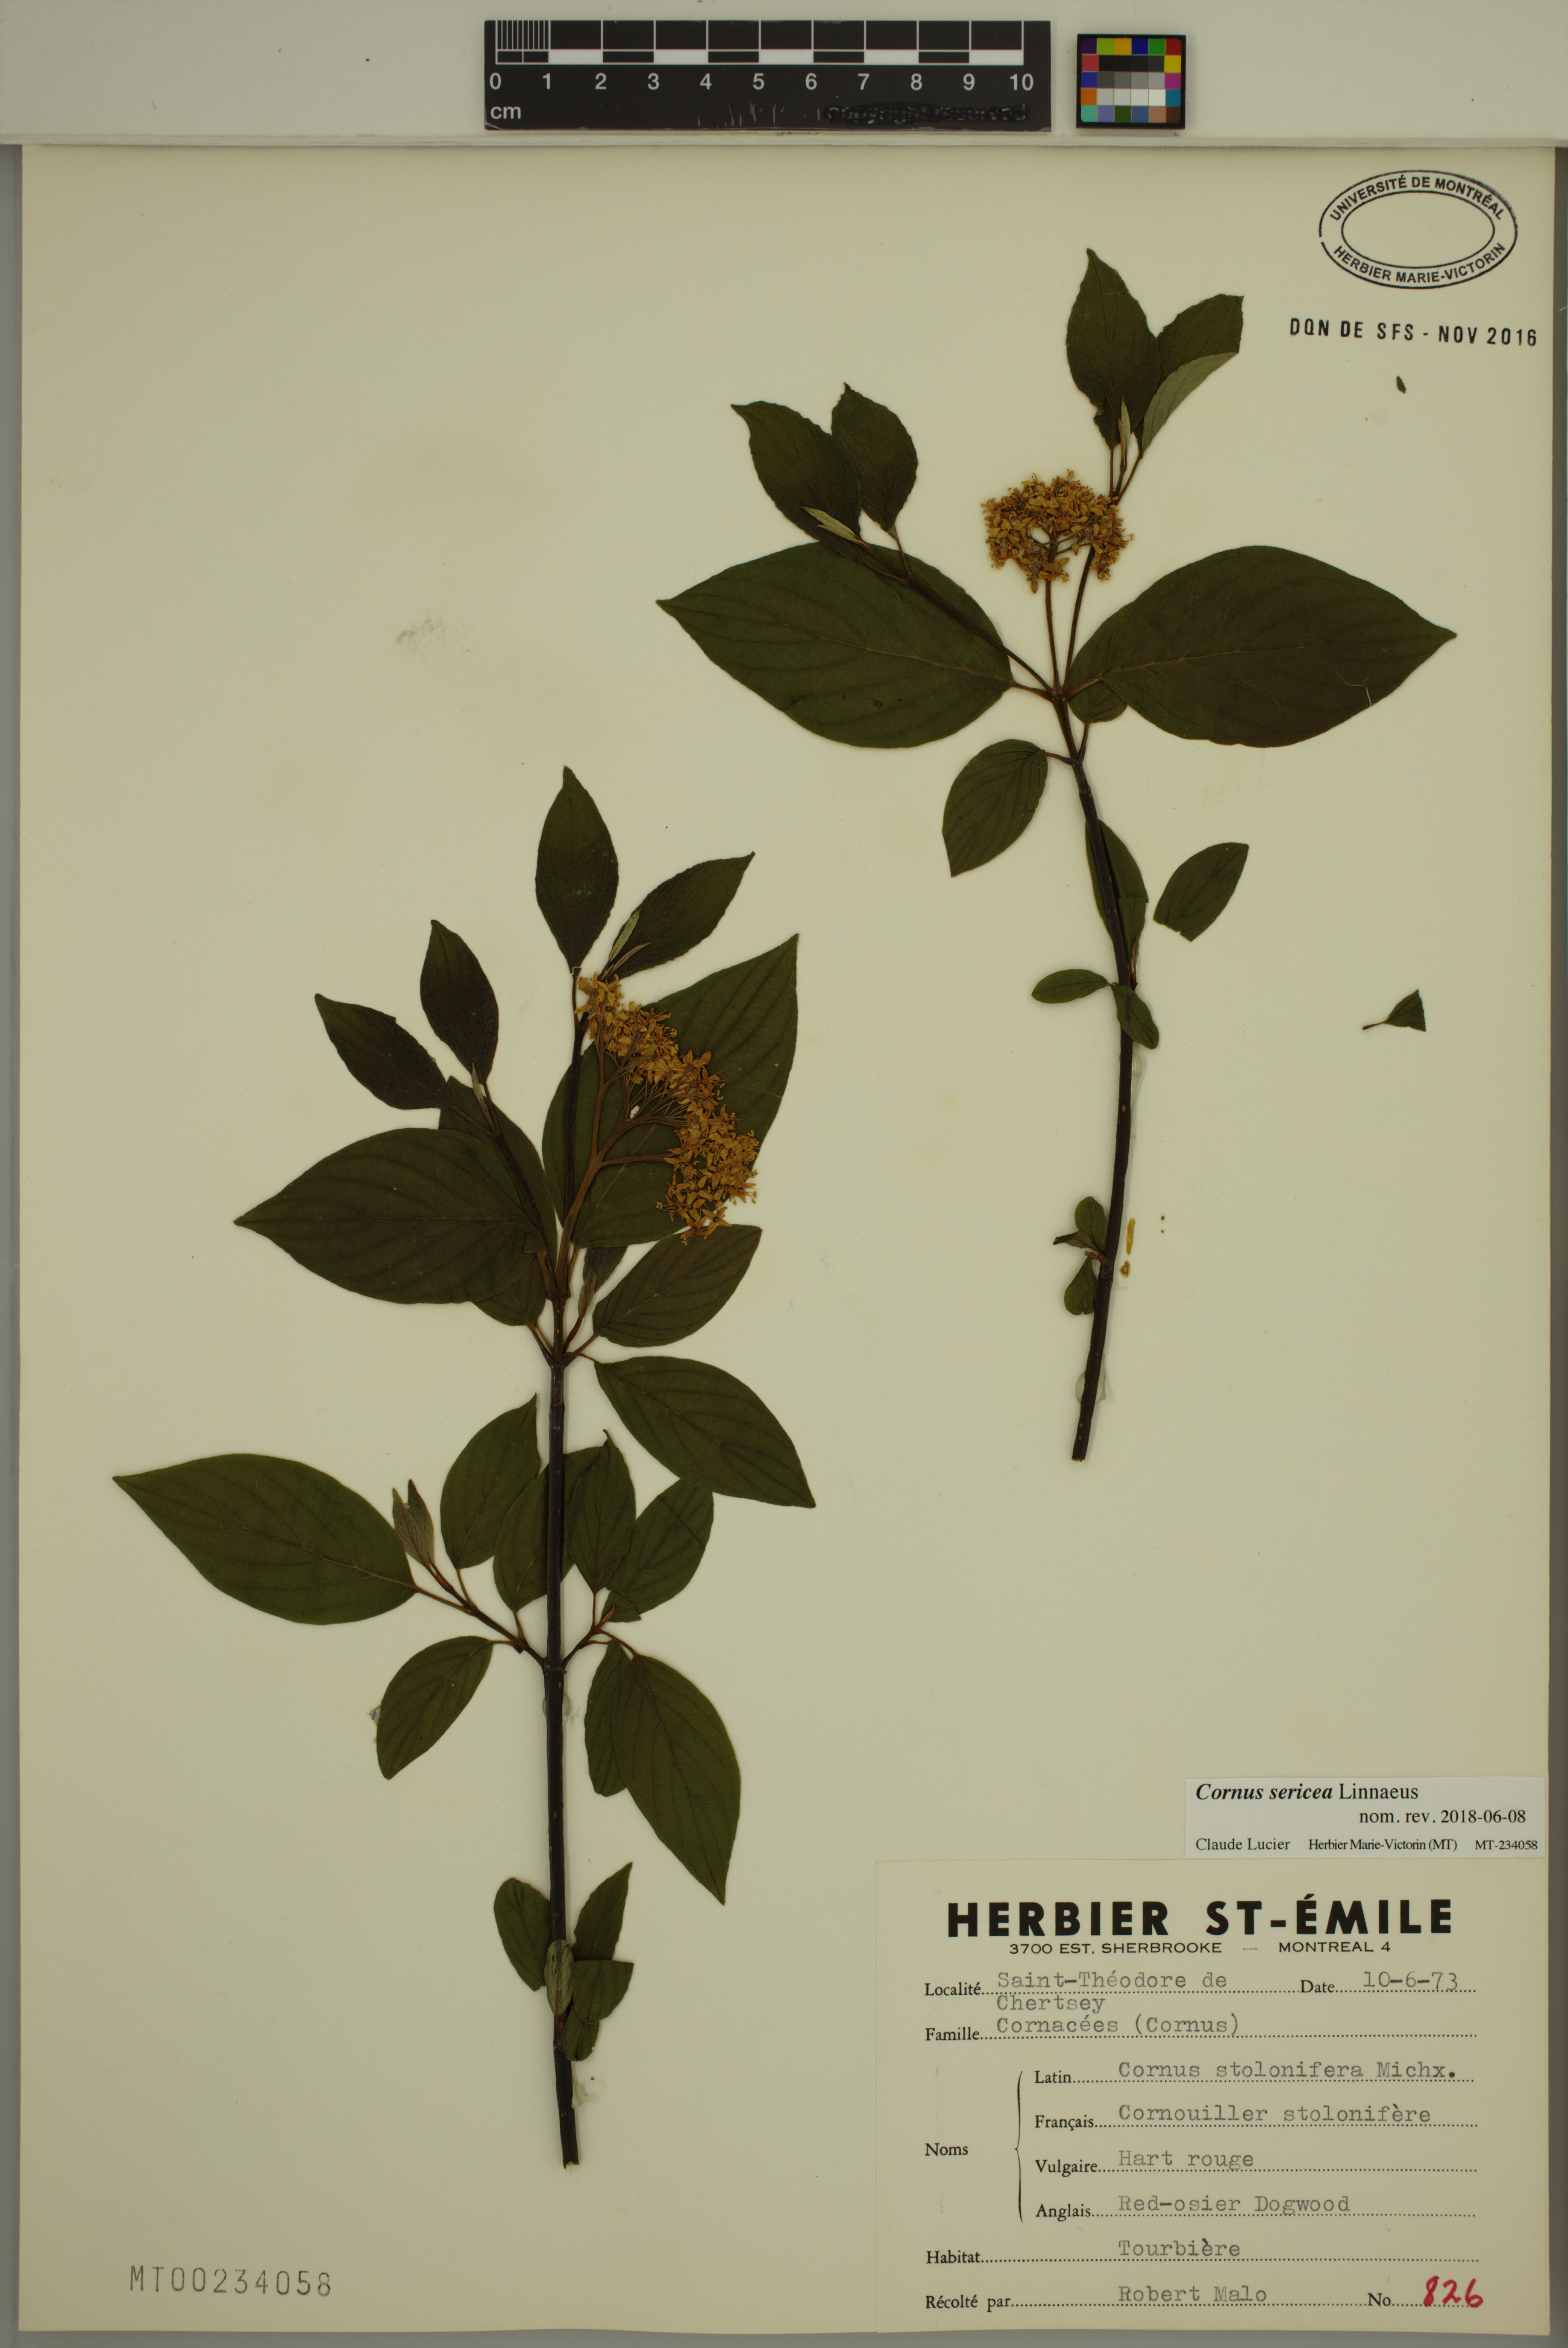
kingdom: Plantae
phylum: Tracheophyta
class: Magnoliopsida
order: Cornales
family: Cornaceae
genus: Cornus
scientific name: Cornus sericea
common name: Red-osier dogwood
